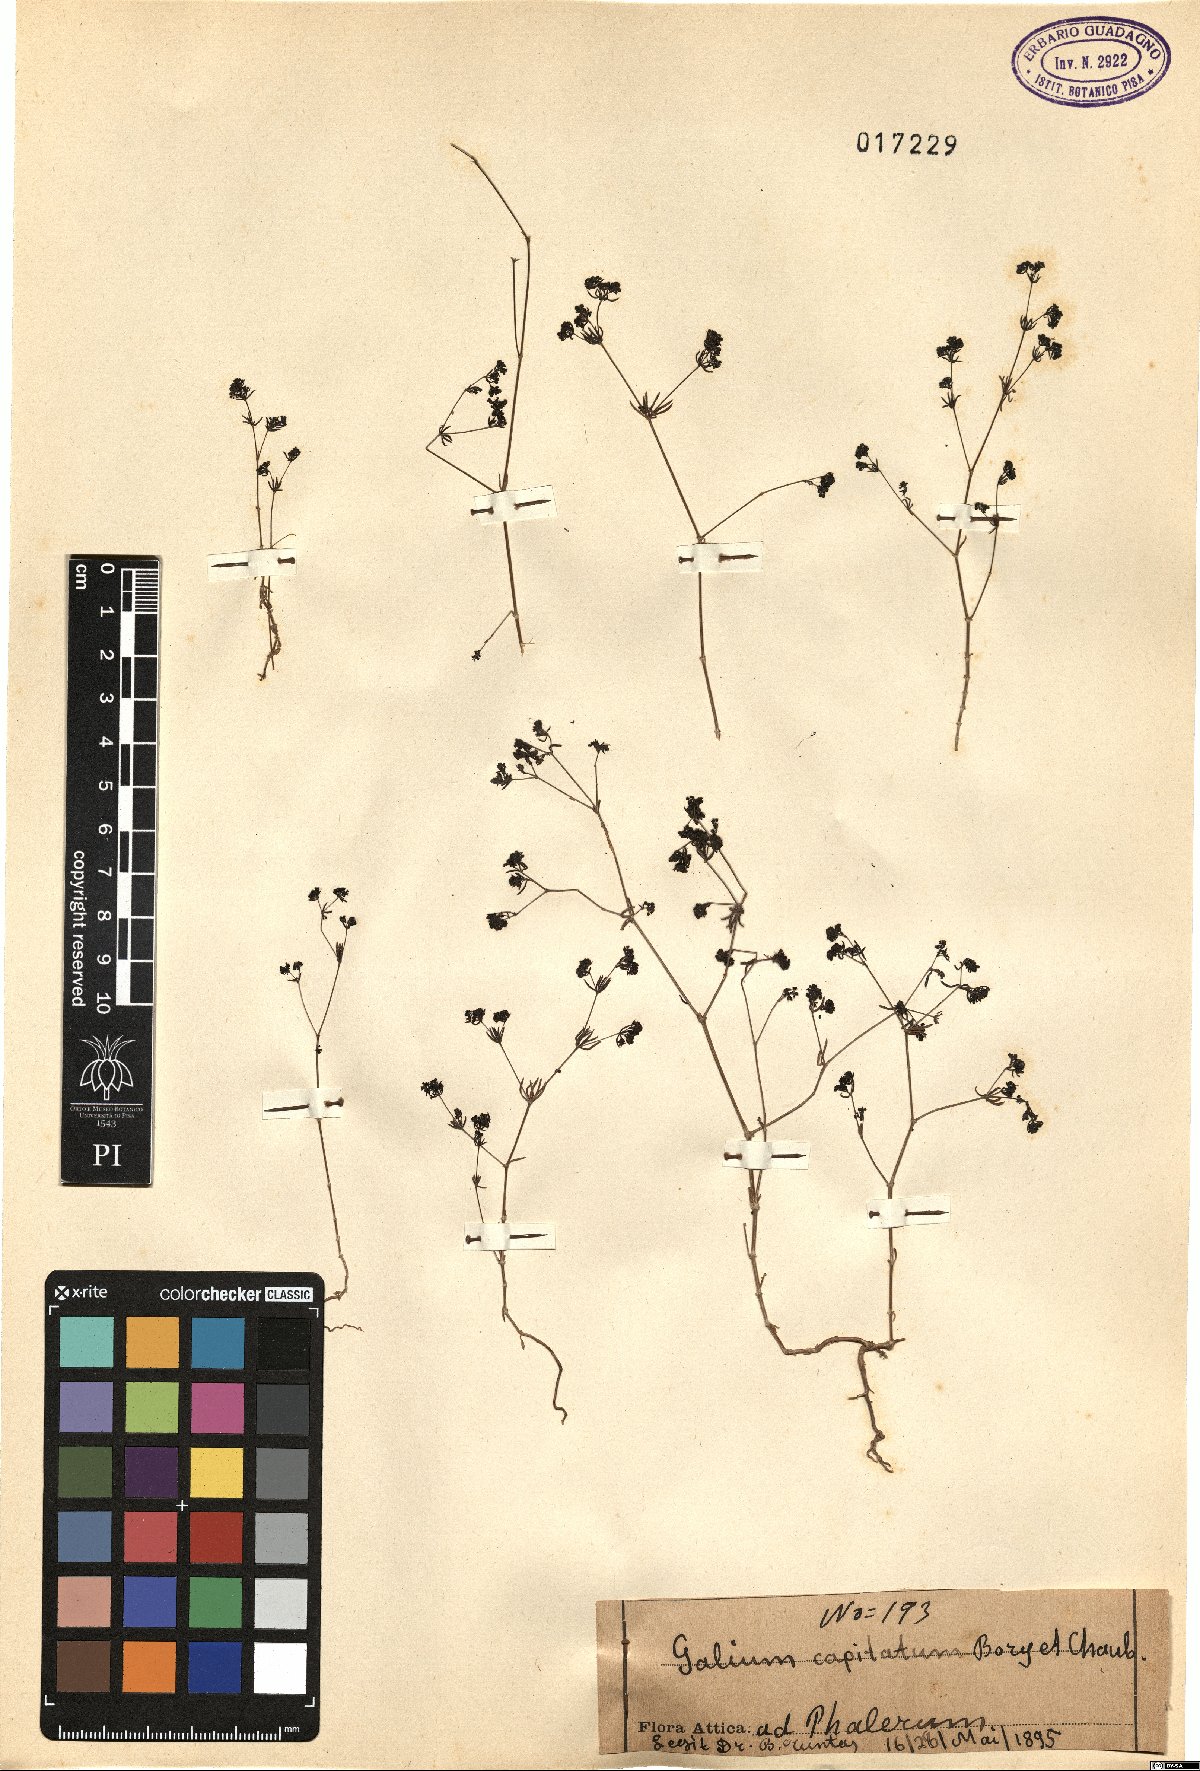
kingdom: Plantae
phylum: Tracheophyta
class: Magnoliopsida
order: Gentianales
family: Rubiaceae
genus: Galium
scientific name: Galium capitatum
